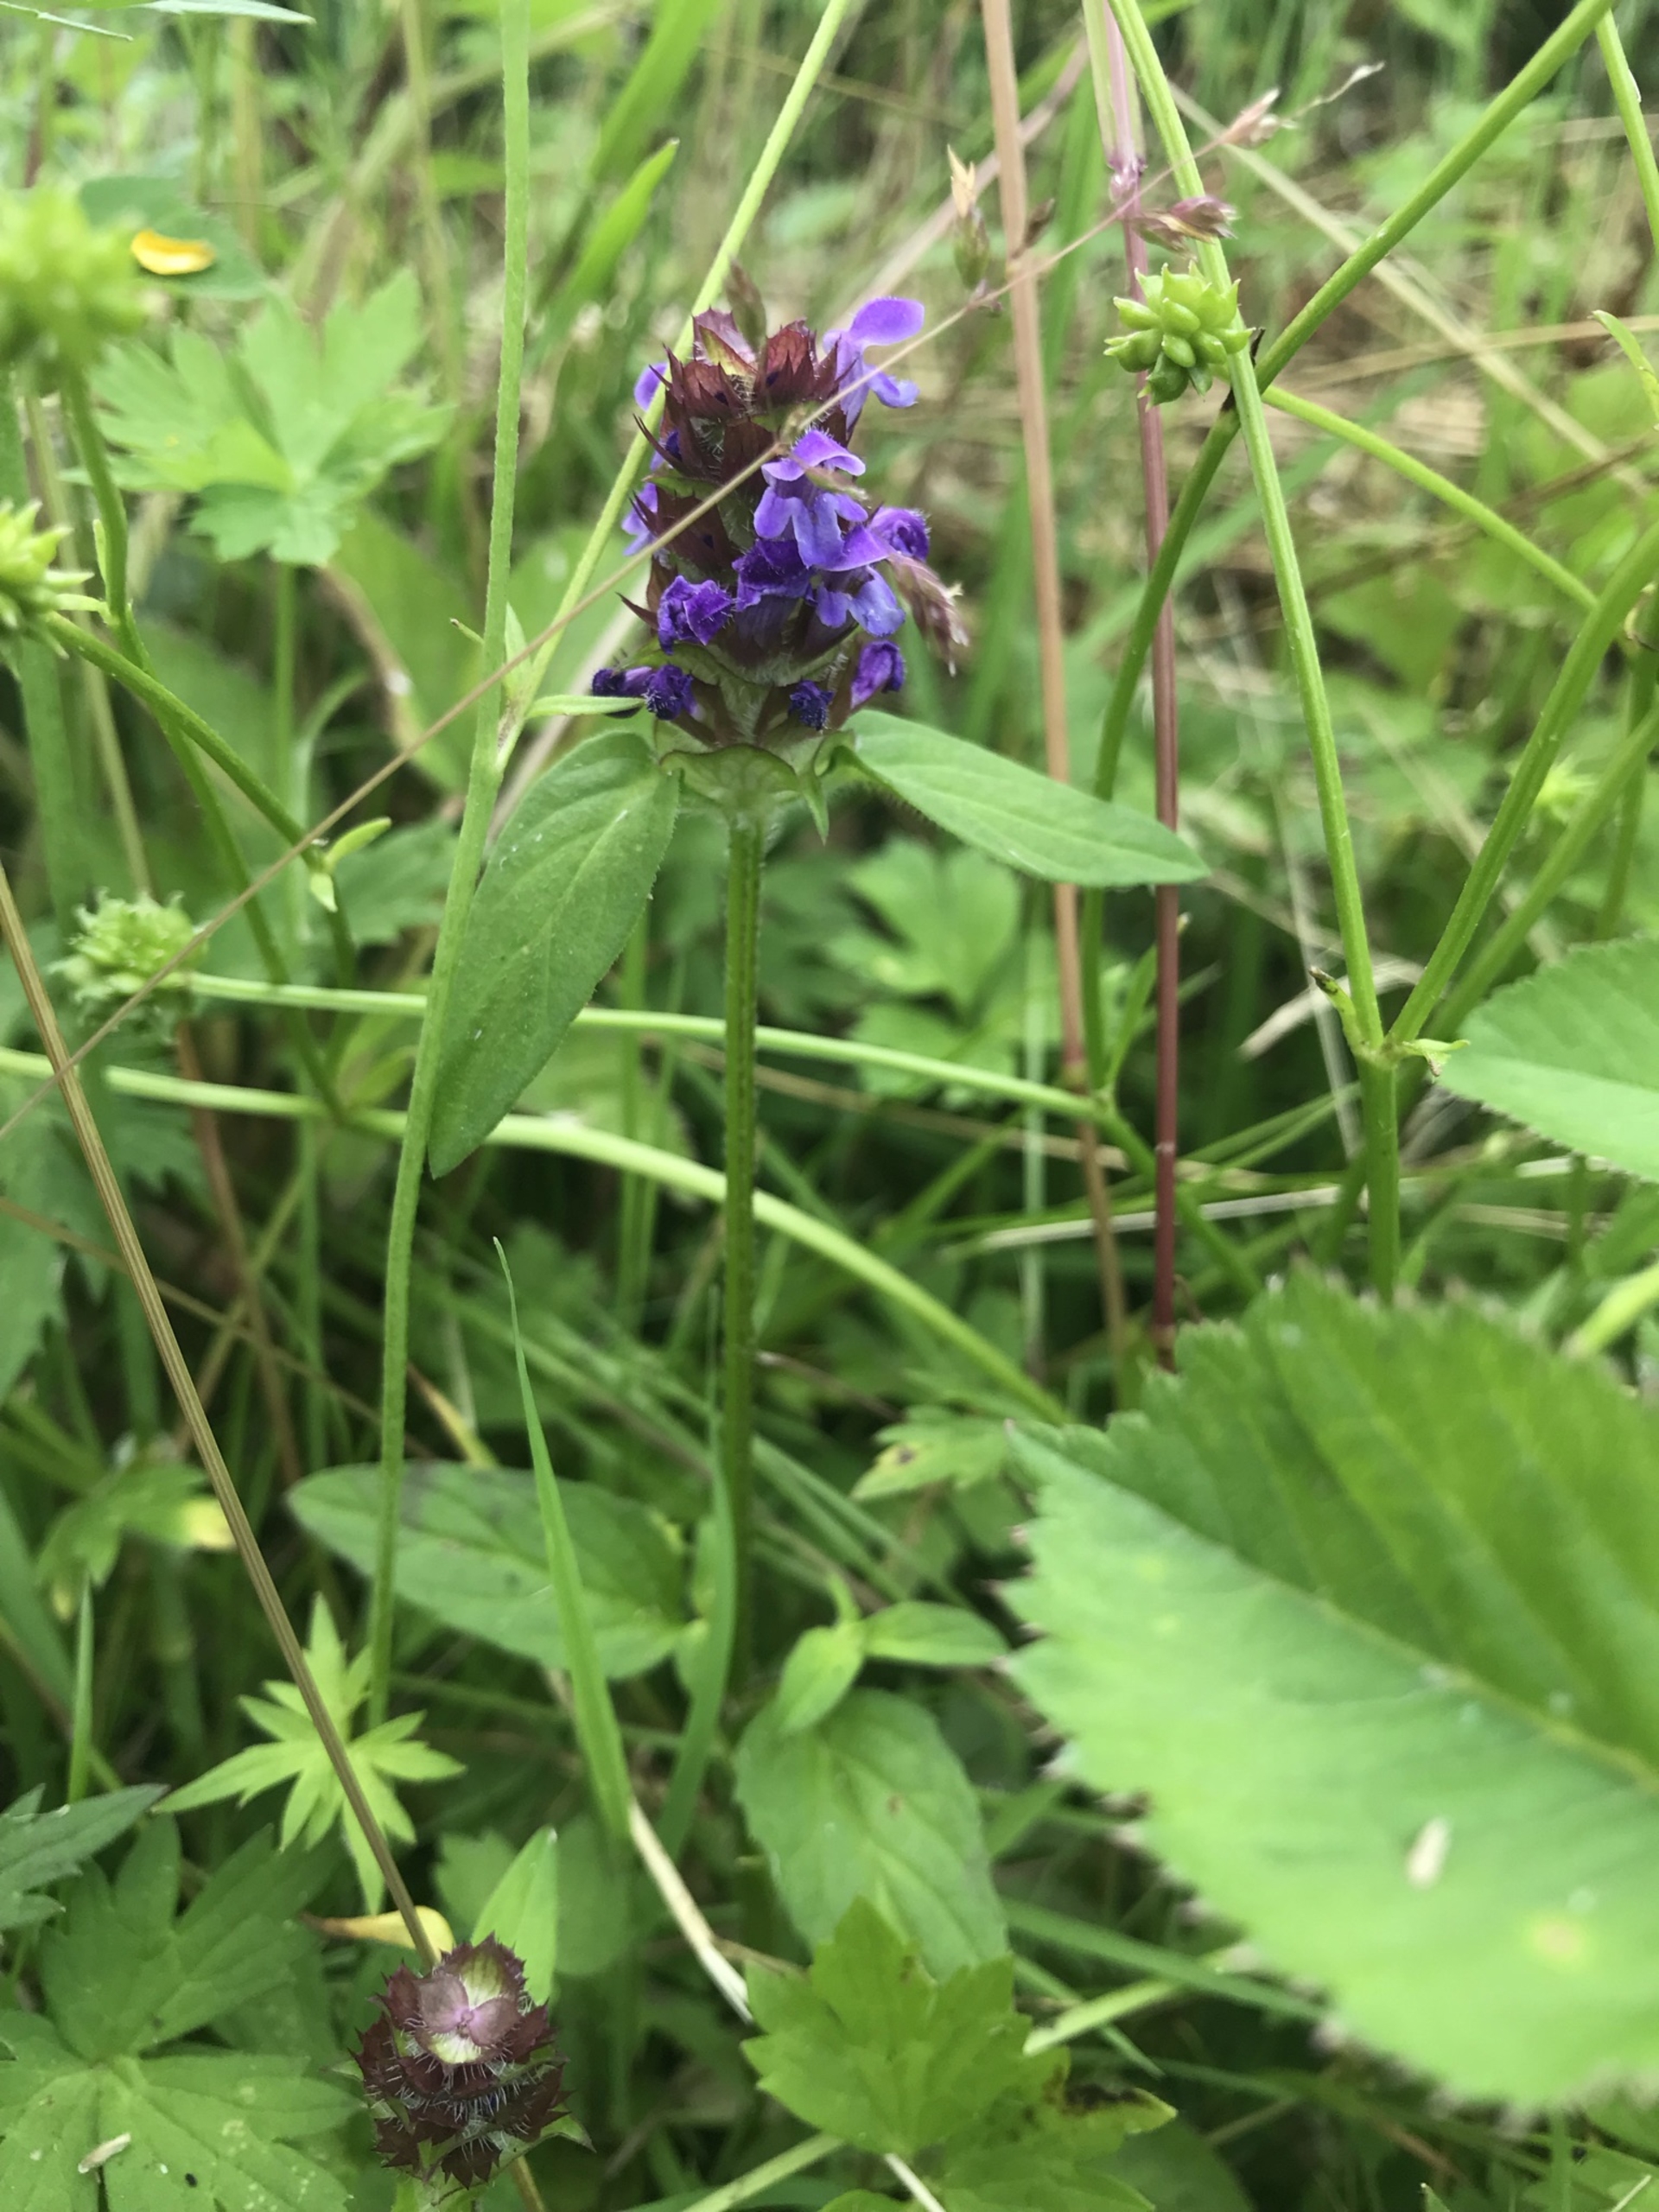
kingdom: Plantae
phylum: Tracheophyta
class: Magnoliopsida
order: Lamiales
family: Lamiaceae
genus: Prunella
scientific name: Prunella vulgaris
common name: Almindelig brunelle
